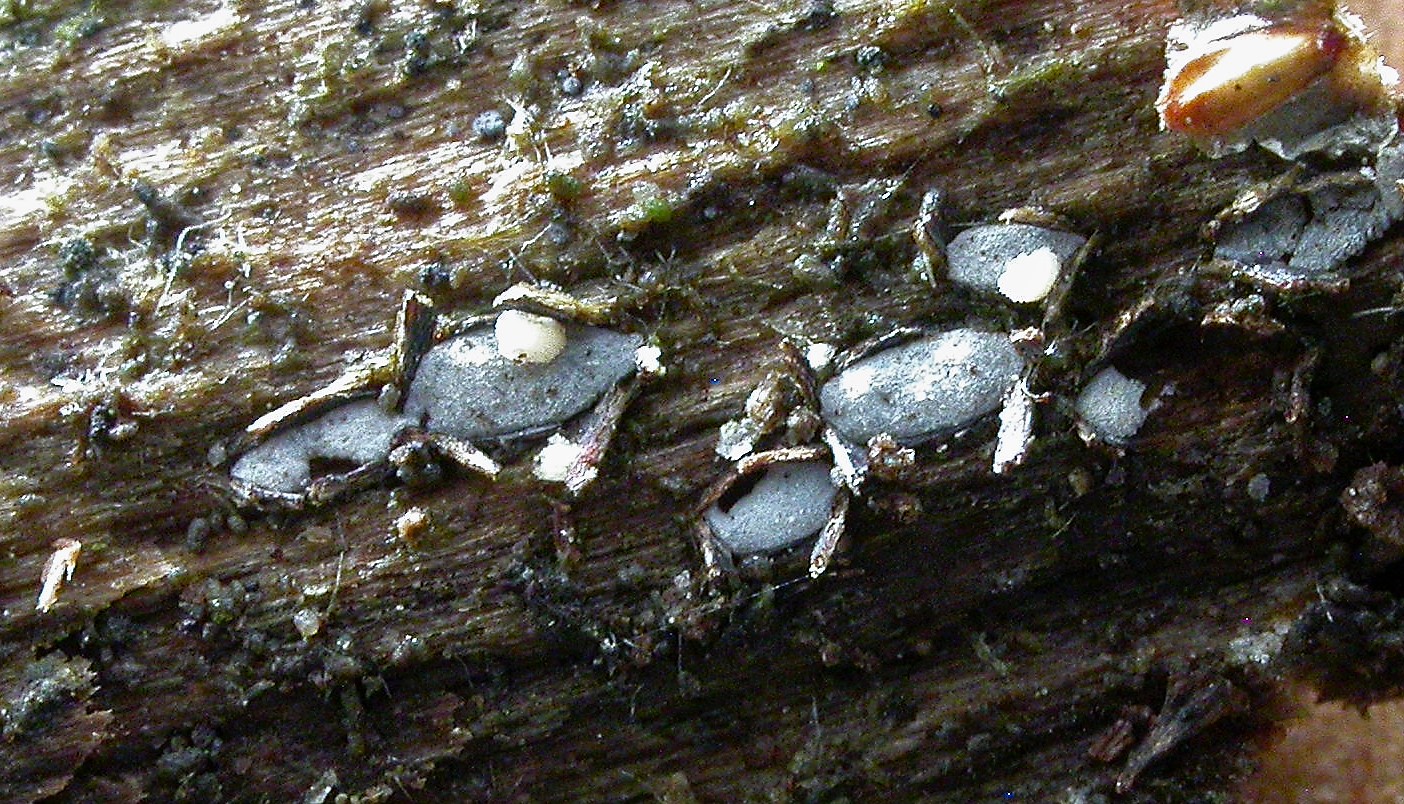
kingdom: Fungi
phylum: Ascomycota
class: Leotiomycetes
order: Chaetomellales
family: Marthamycetaceae
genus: Propolis
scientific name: Propolis farinosa
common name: almindelig vedsprængerskive
